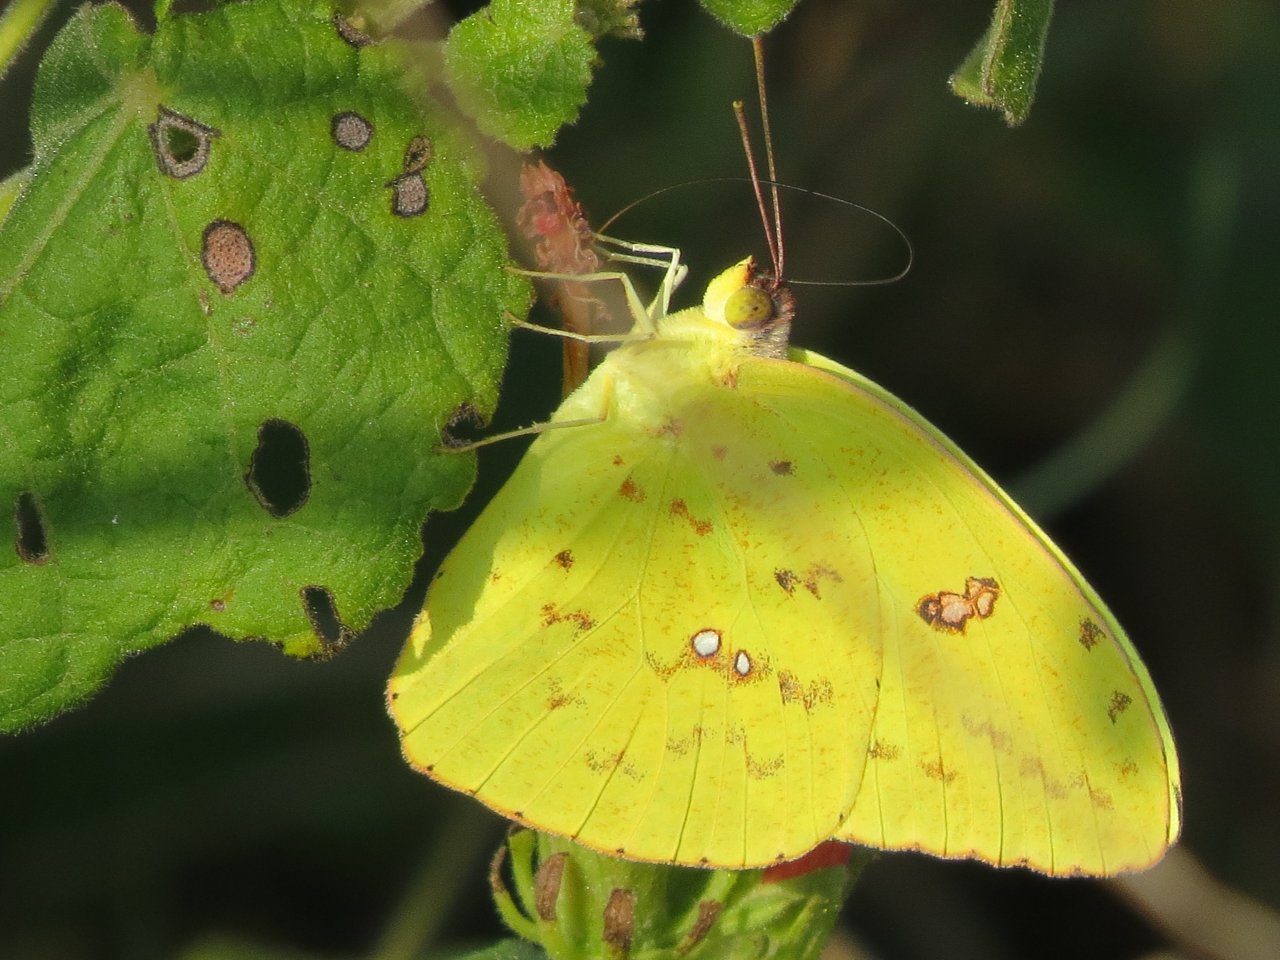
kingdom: Animalia
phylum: Arthropoda
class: Insecta
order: Lepidoptera
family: Pieridae
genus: Phoebis
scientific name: Phoebis sennae
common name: Cloudless Sulphur
